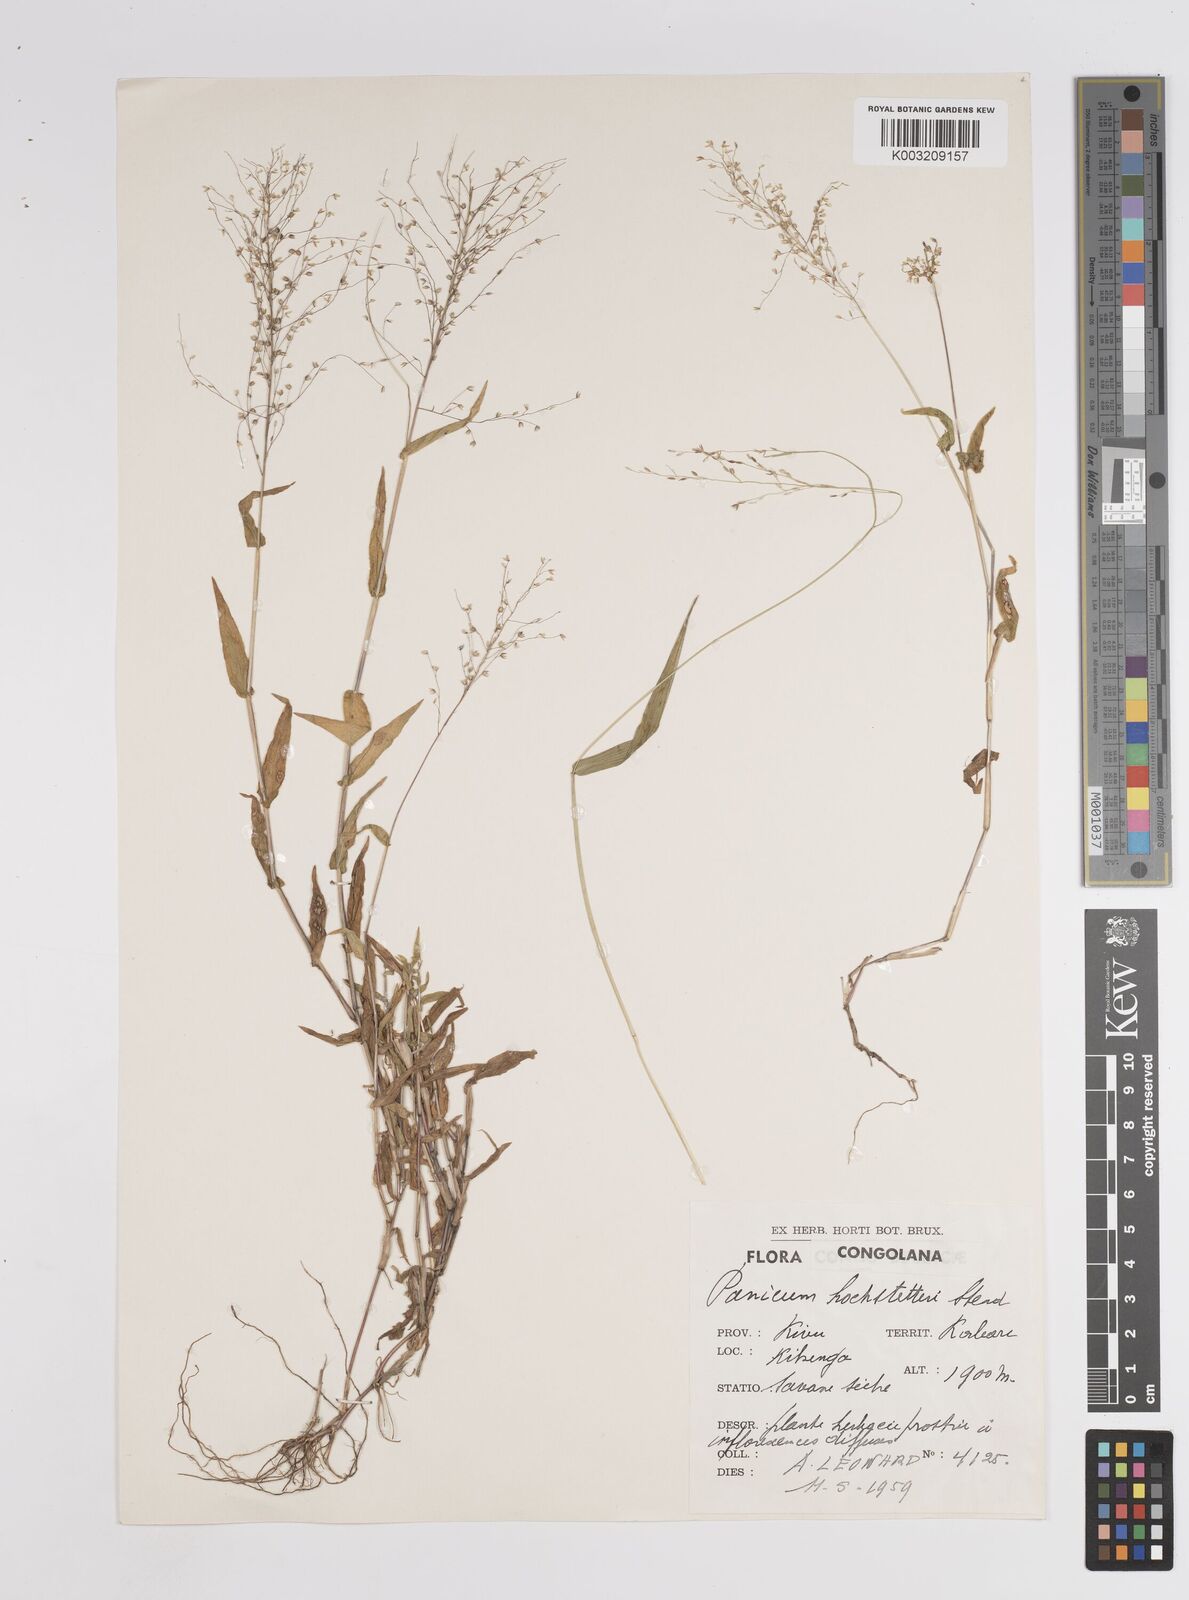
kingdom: Plantae
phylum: Tracheophyta
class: Liliopsida
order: Poales
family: Poaceae
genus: Pseudechinolaena
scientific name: Pseudechinolaena polystachya
